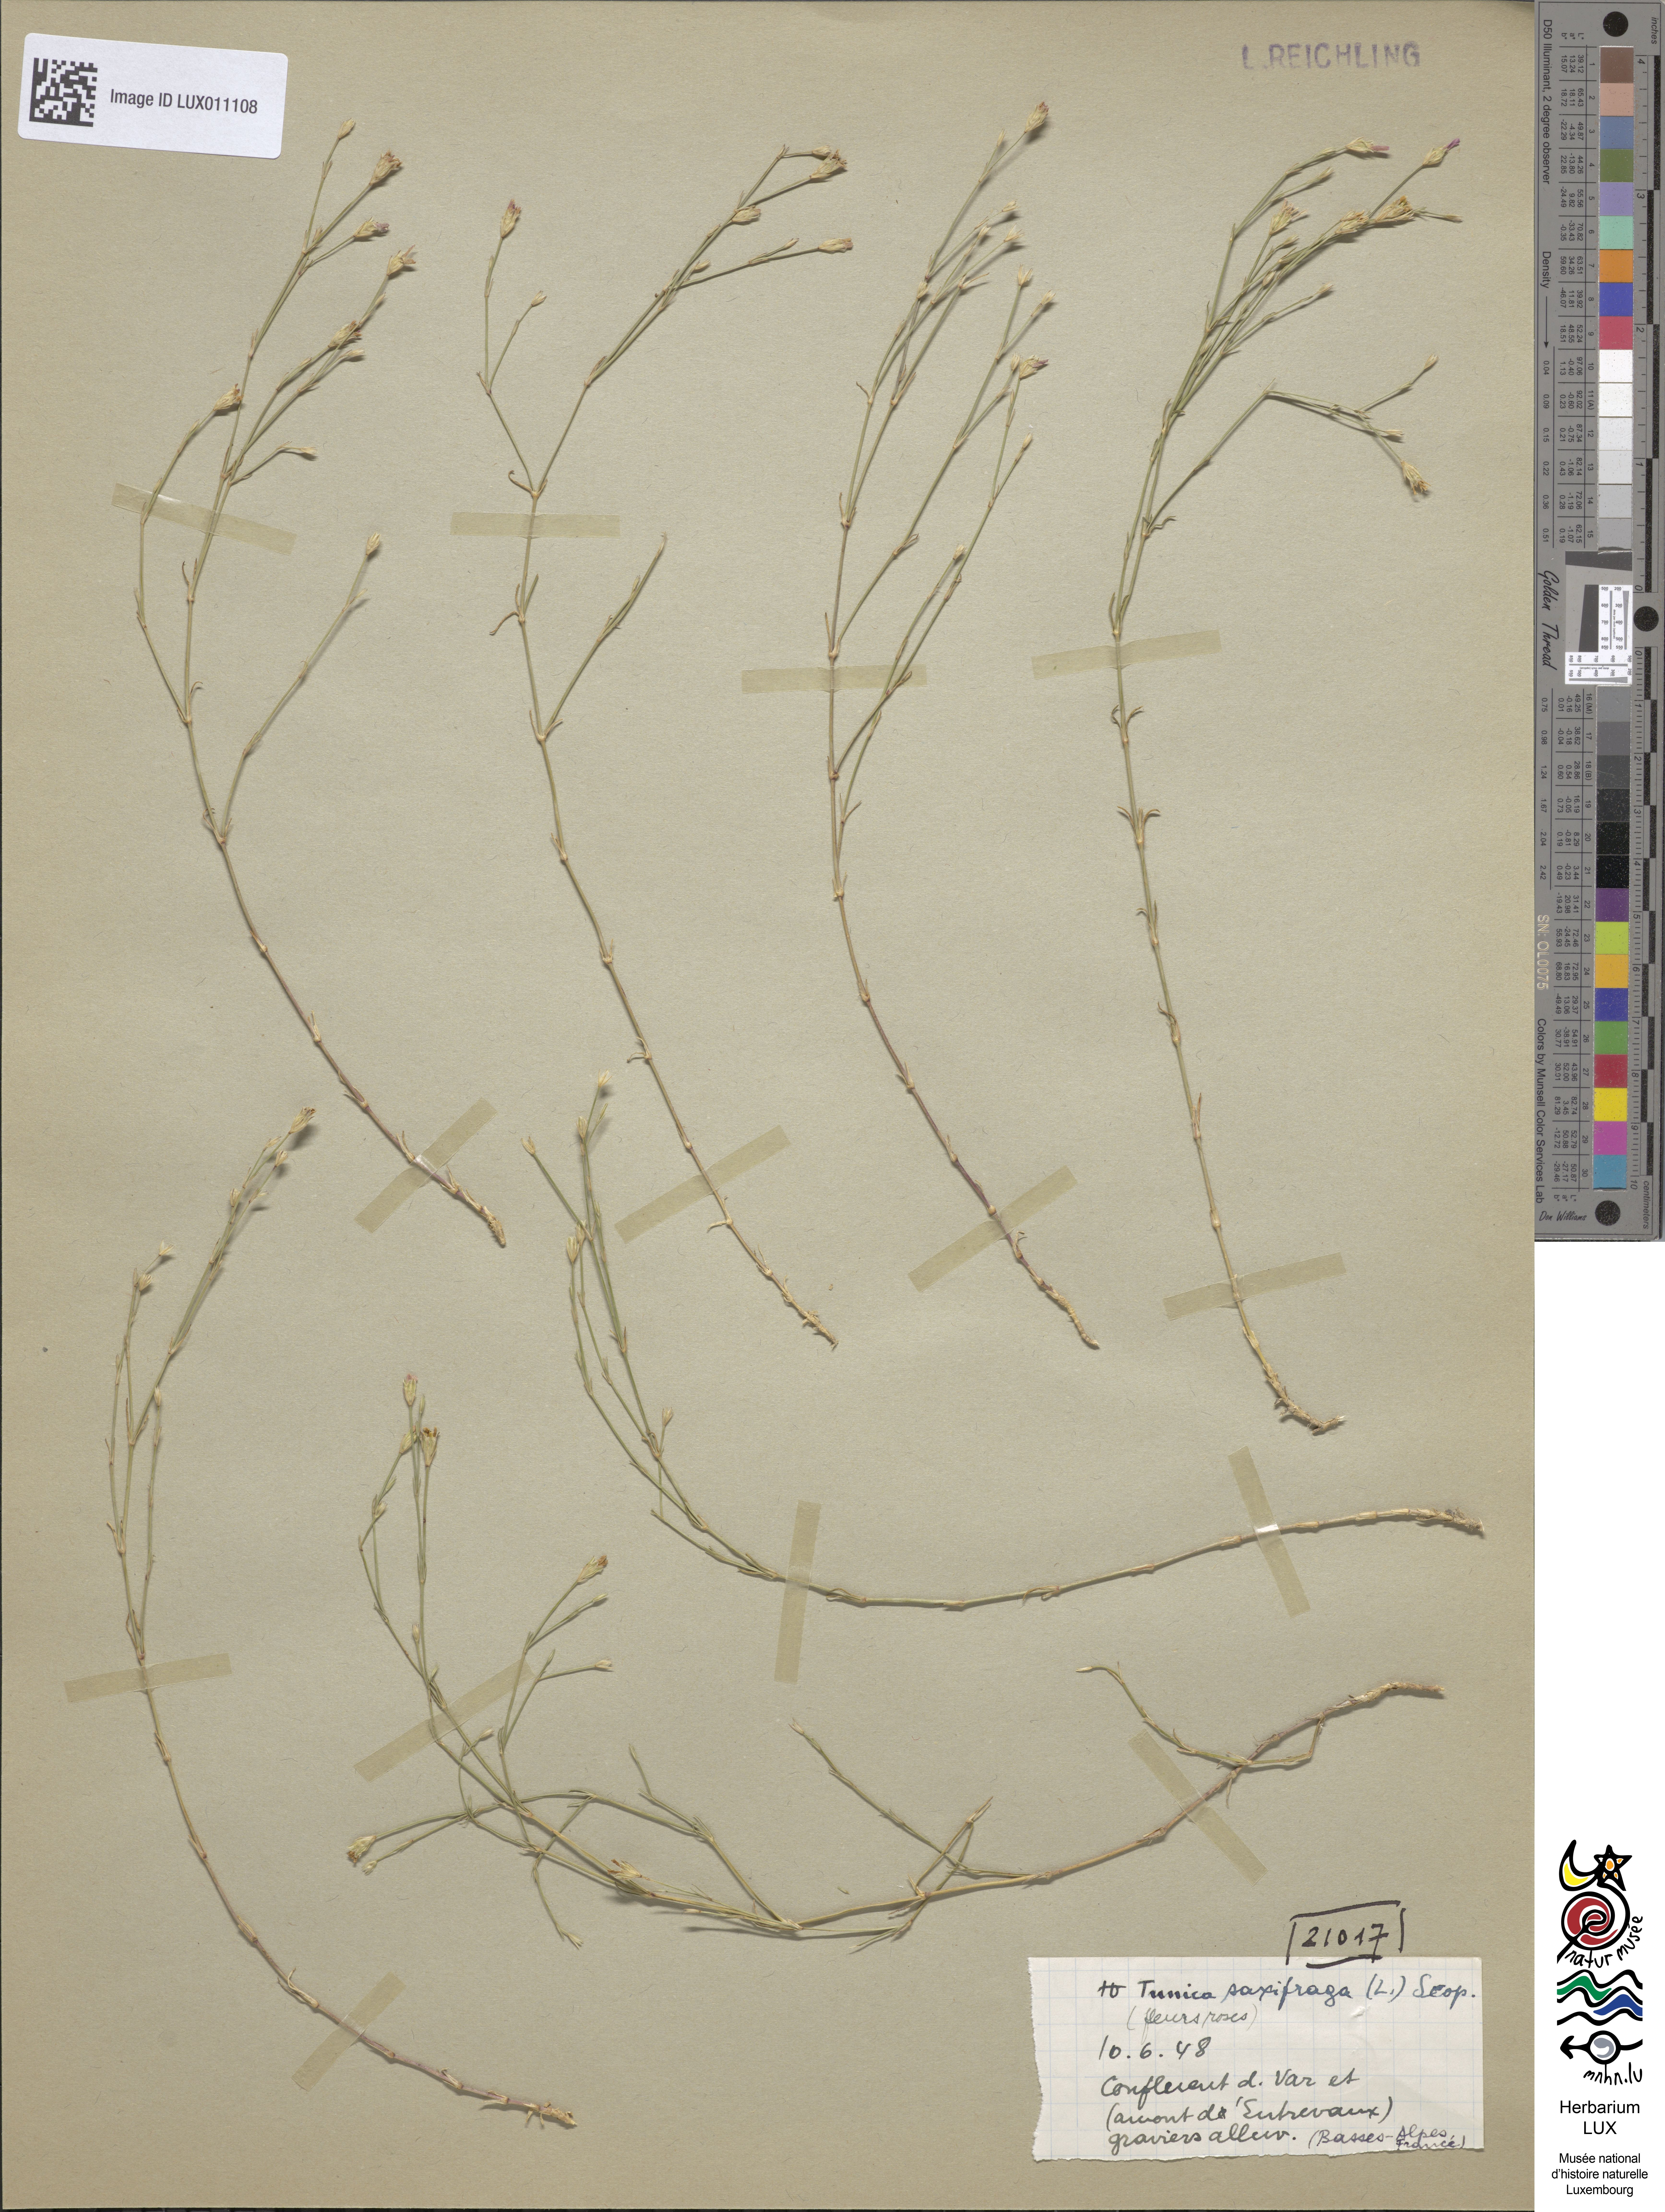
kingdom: Plantae
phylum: Tracheophyta
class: Magnoliopsida
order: Caryophyllales
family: Caryophyllaceae
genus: Petrorhagia
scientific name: Petrorhagia saxifraga
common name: Tunicflower
